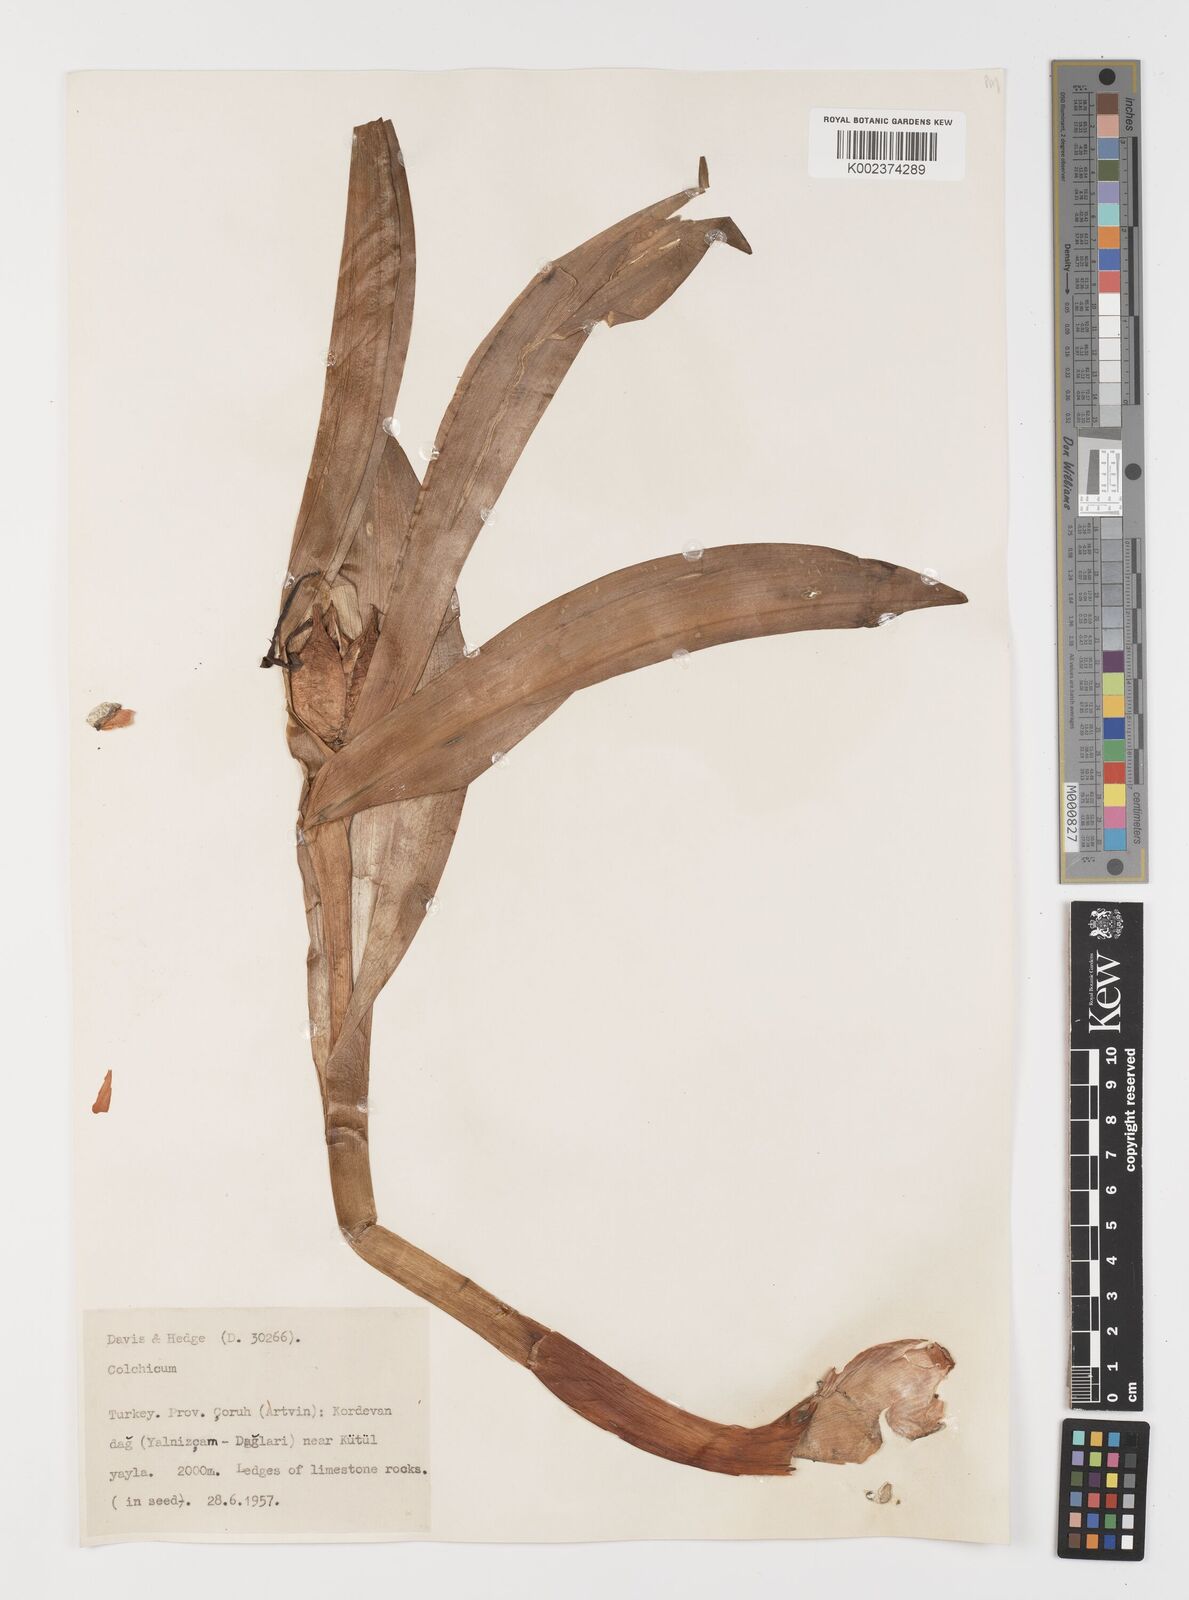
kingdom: Plantae
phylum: Tracheophyta
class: Liliopsida
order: Liliales
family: Colchicaceae
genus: Colchicum
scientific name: Colchicum
